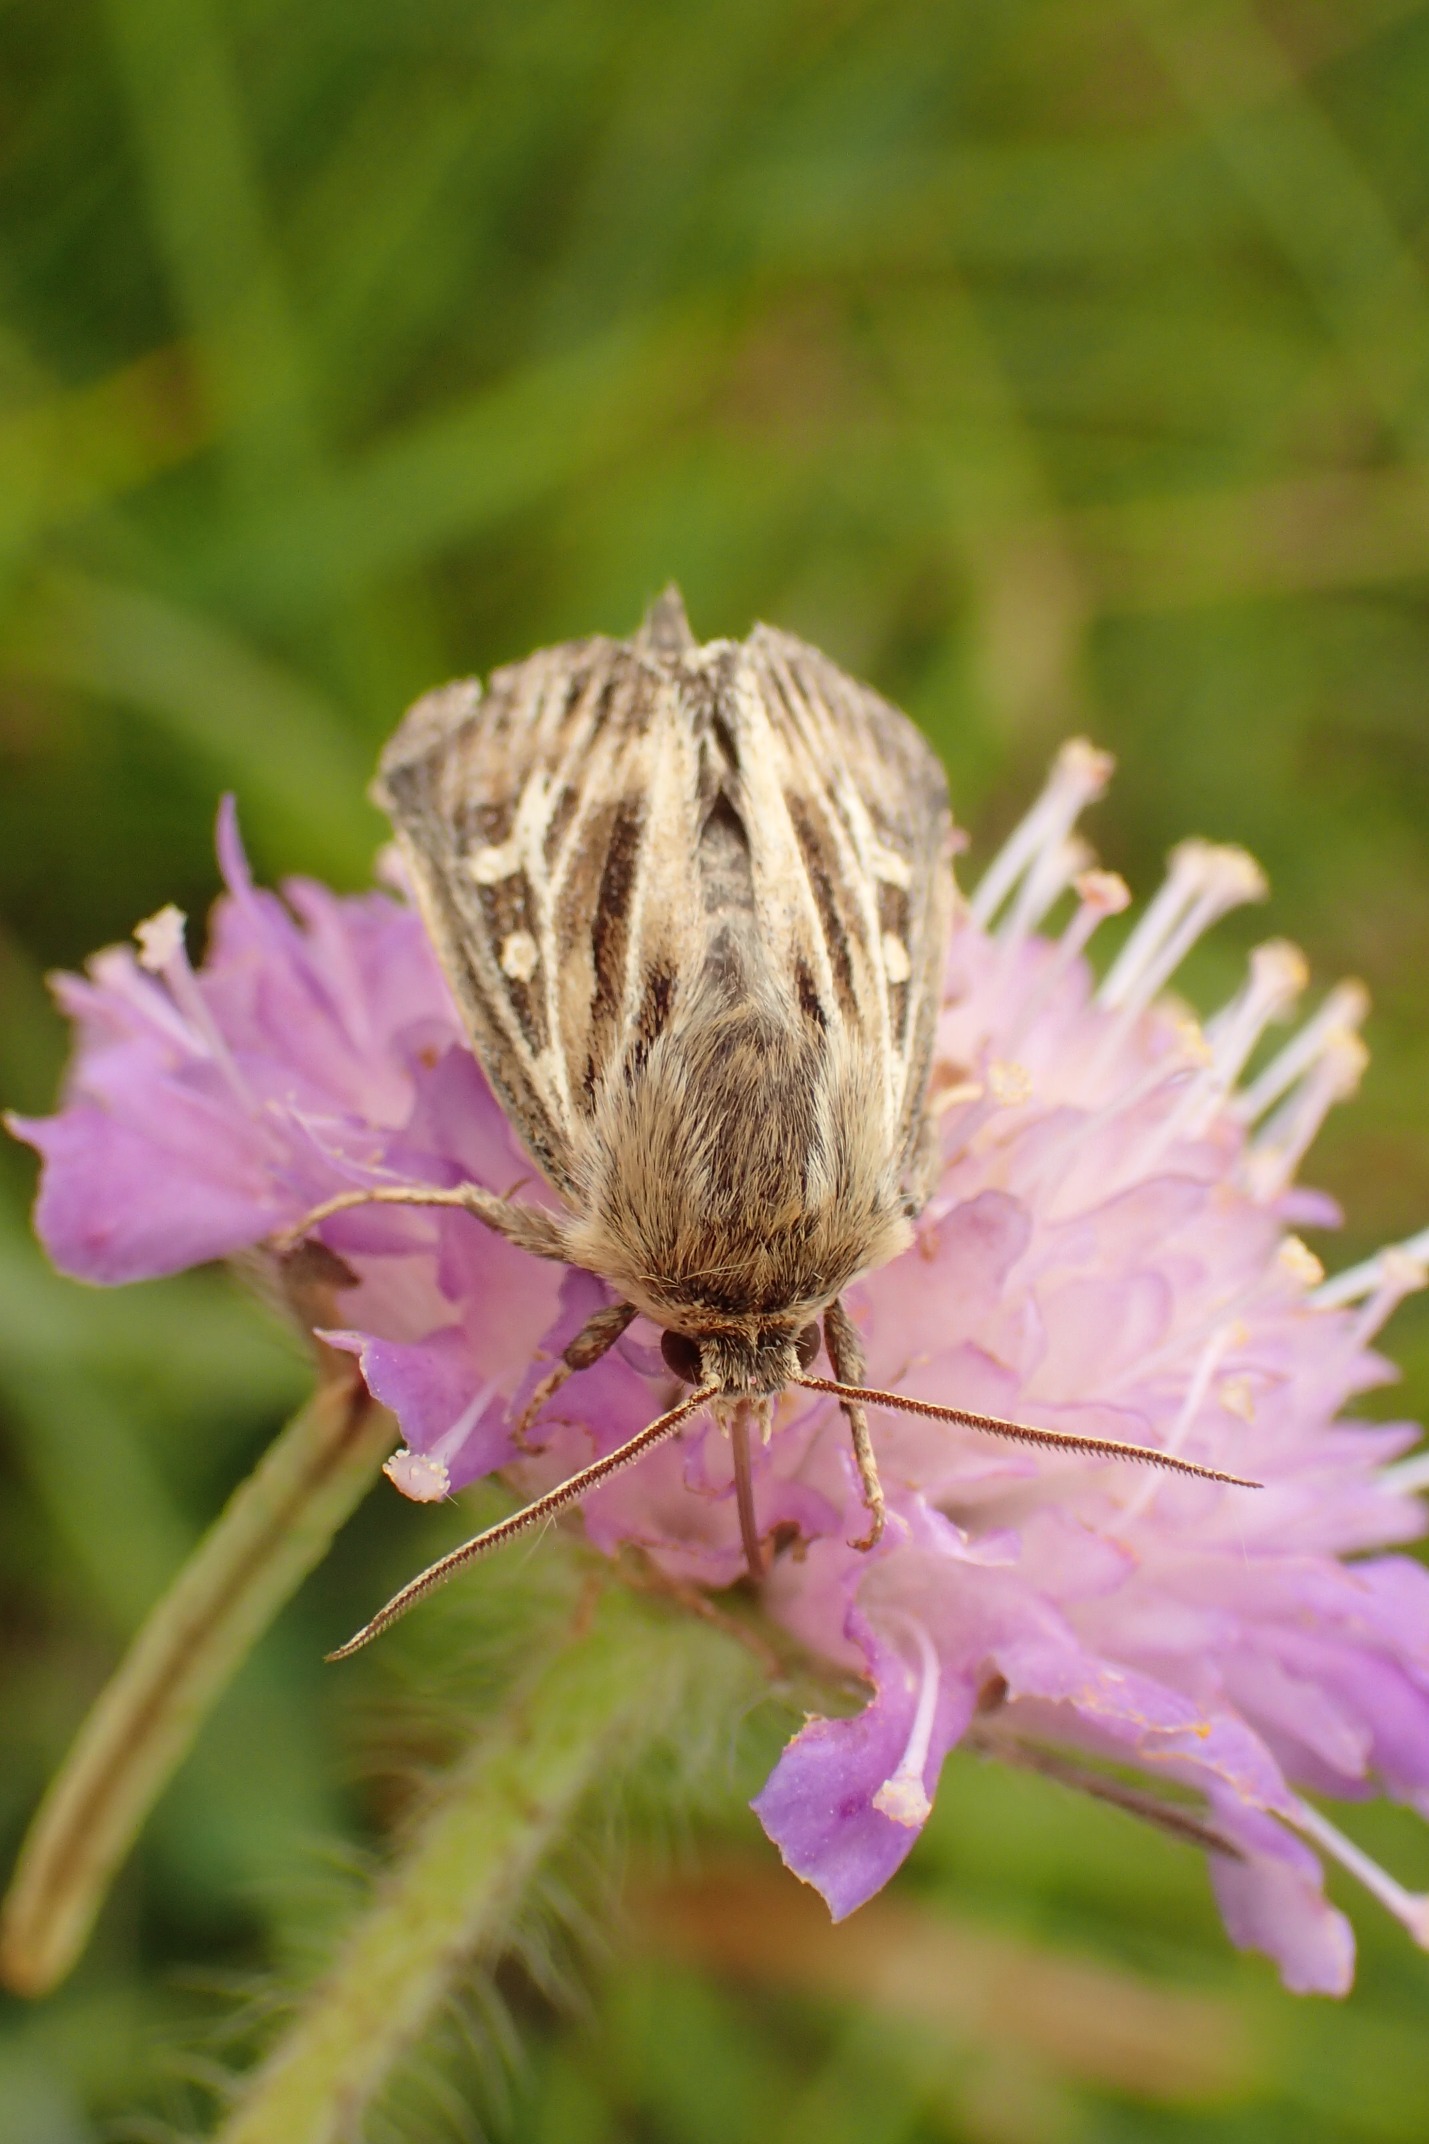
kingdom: Animalia
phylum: Arthropoda
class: Insecta
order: Lepidoptera
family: Noctuidae
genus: Cerapteryx
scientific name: Cerapteryx graminis
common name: Mosebunkeugle
